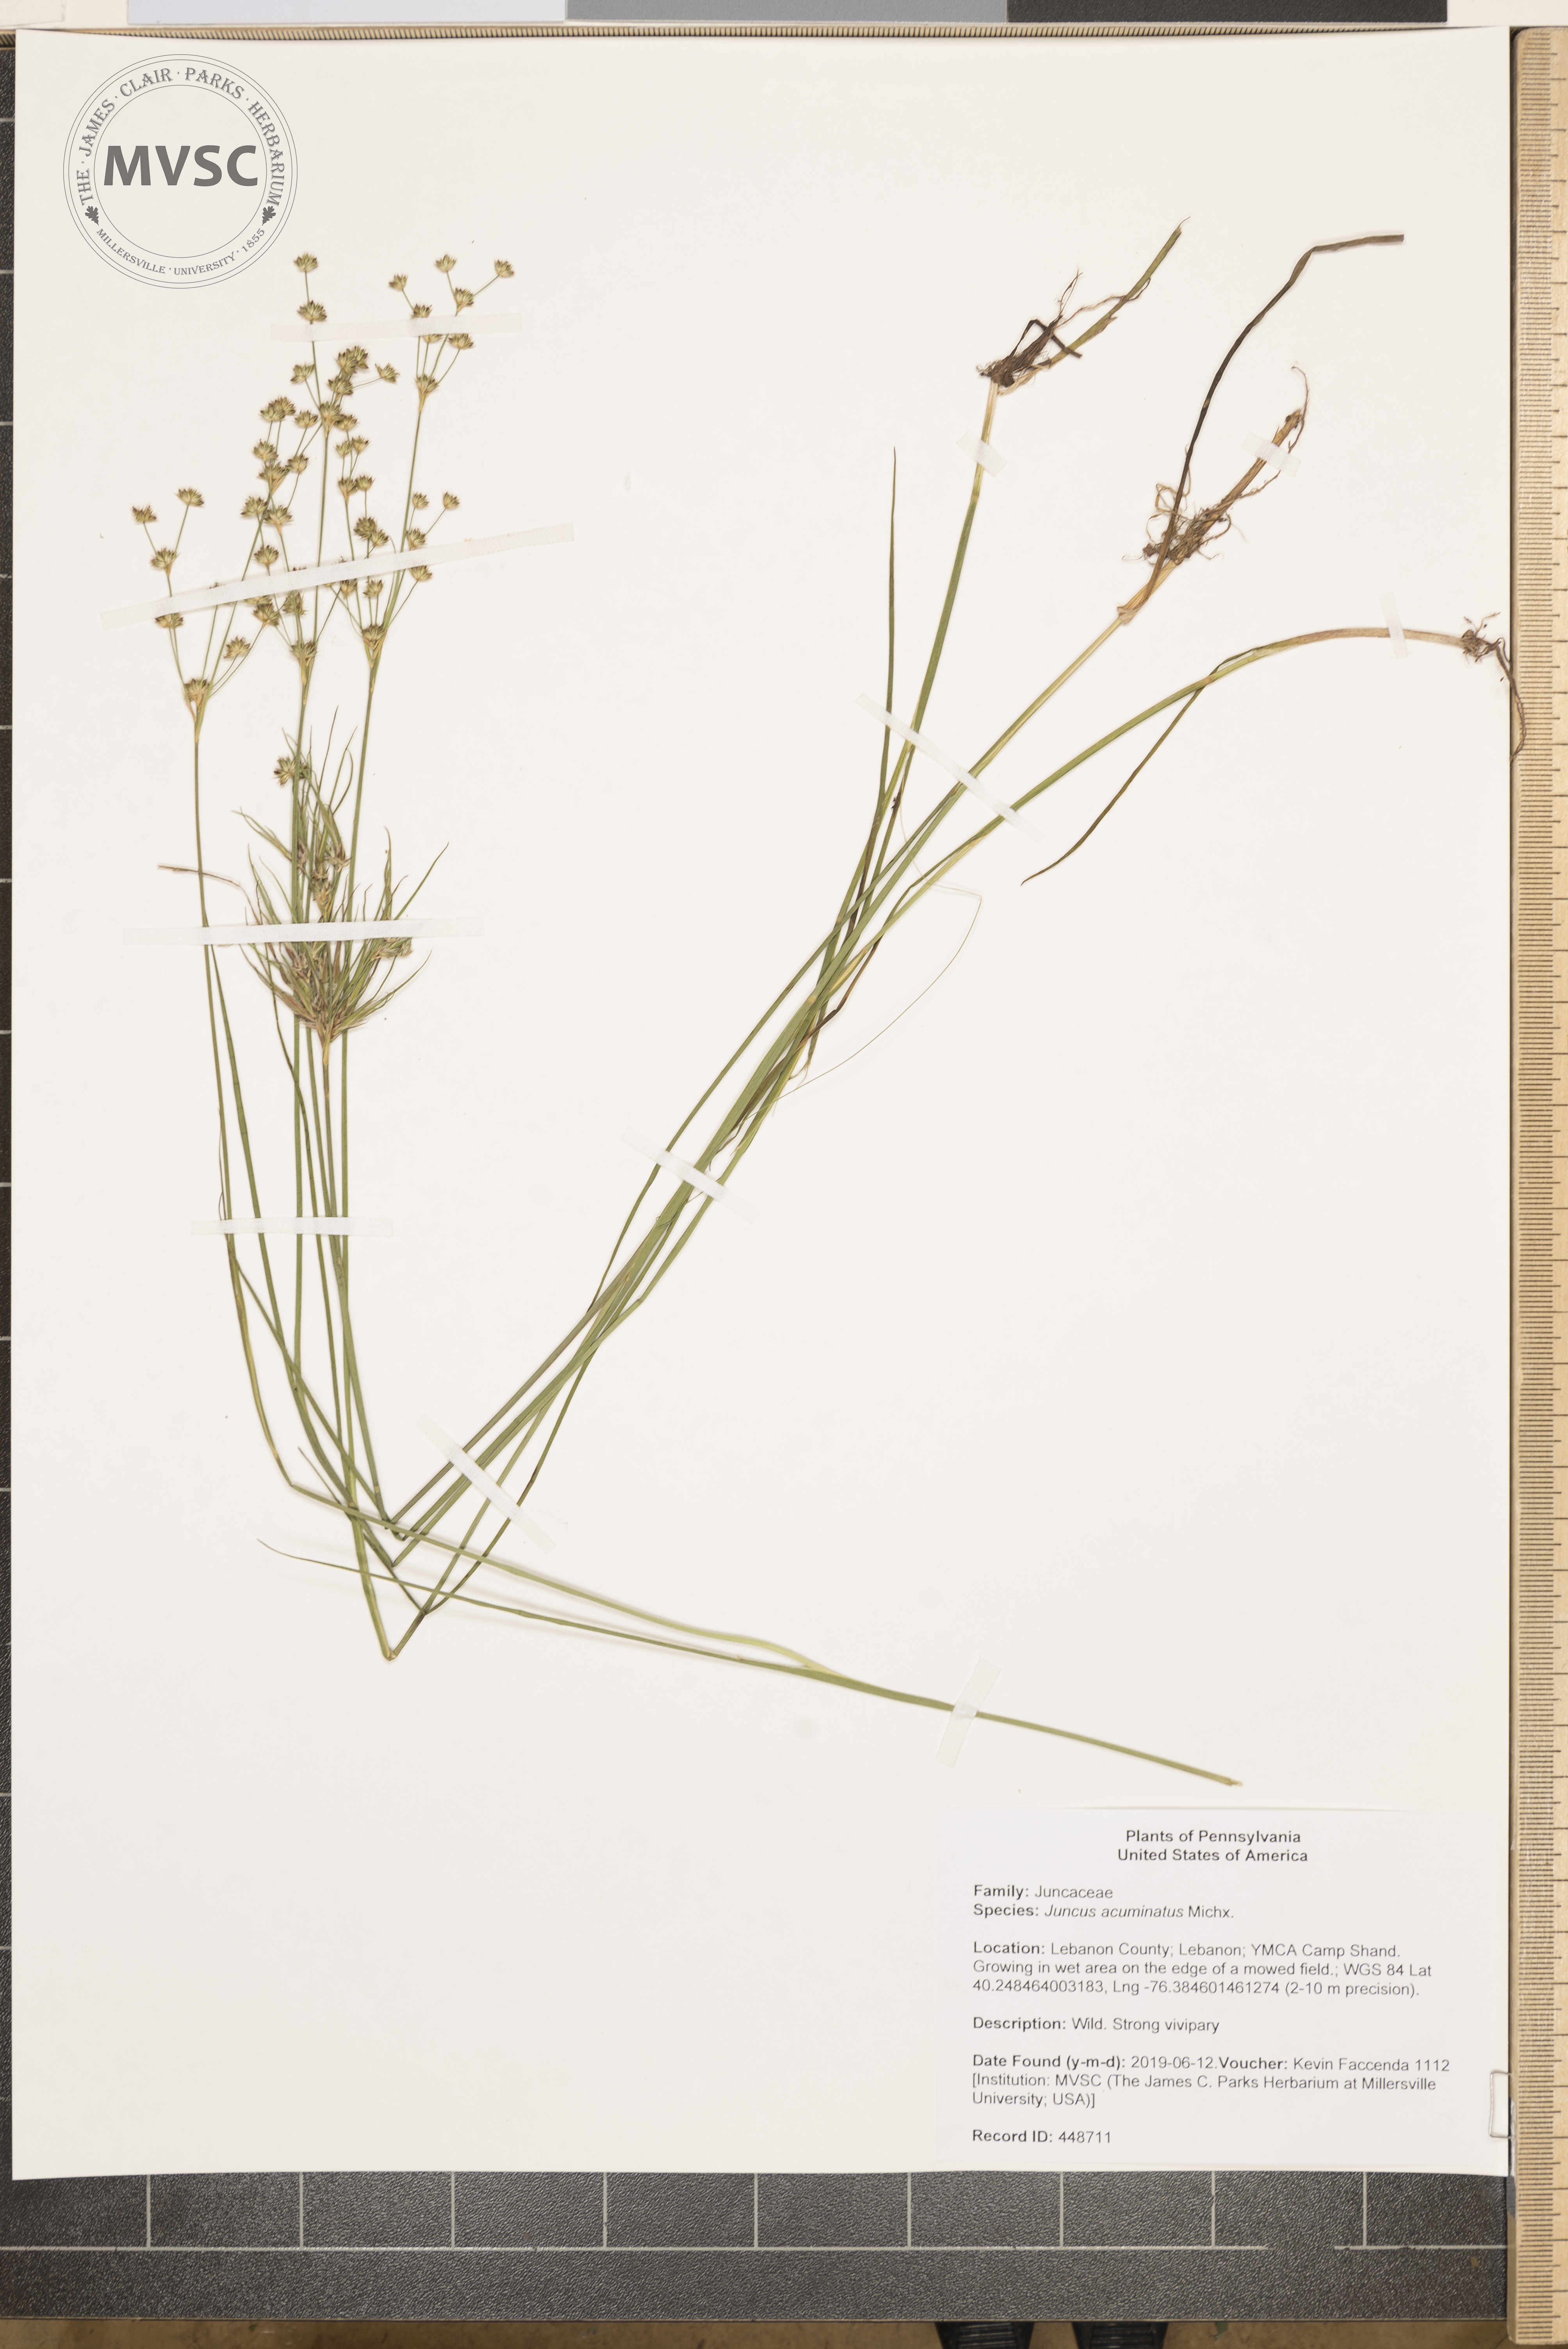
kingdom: Plantae
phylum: Tracheophyta
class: Liliopsida
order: Poales
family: Juncaceae
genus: Juncus
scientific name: Juncus acuminatus
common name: Knotty-leaved rush
